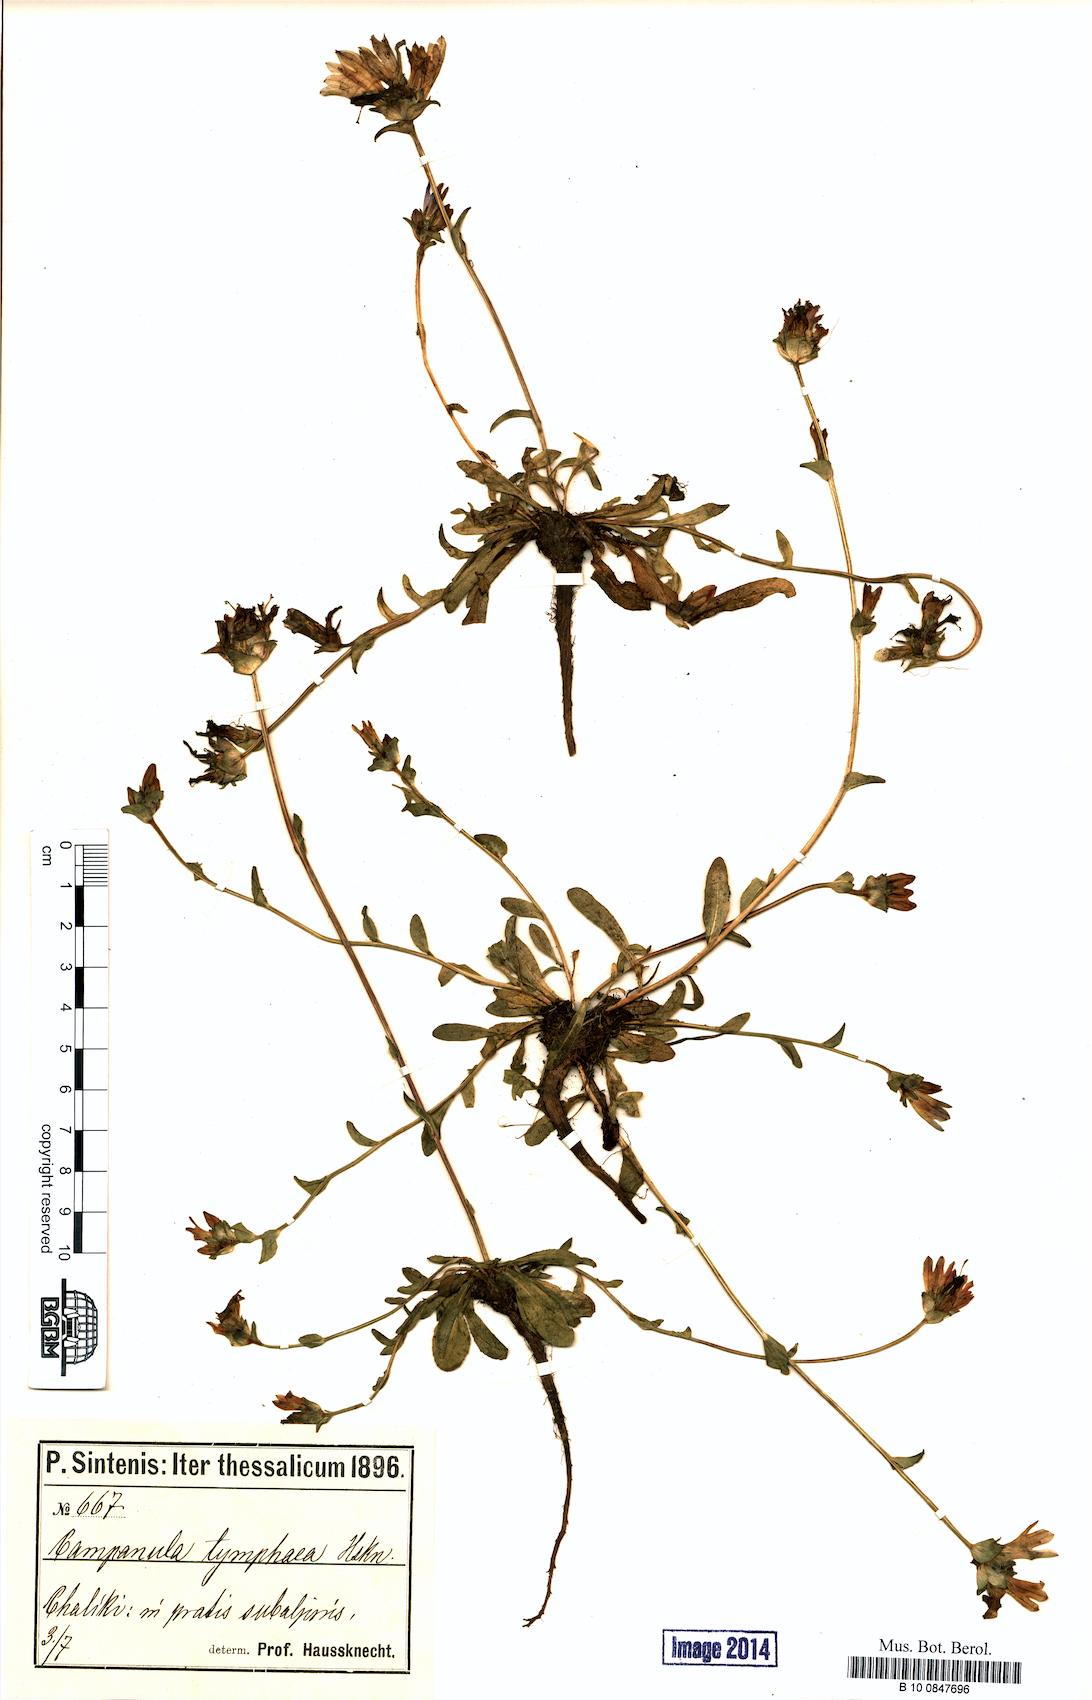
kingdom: Plantae
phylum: Tracheophyta
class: Magnoliopsida
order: Asterales
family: Campanulaceae
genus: Campanula
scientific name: Campanula tymphaea
